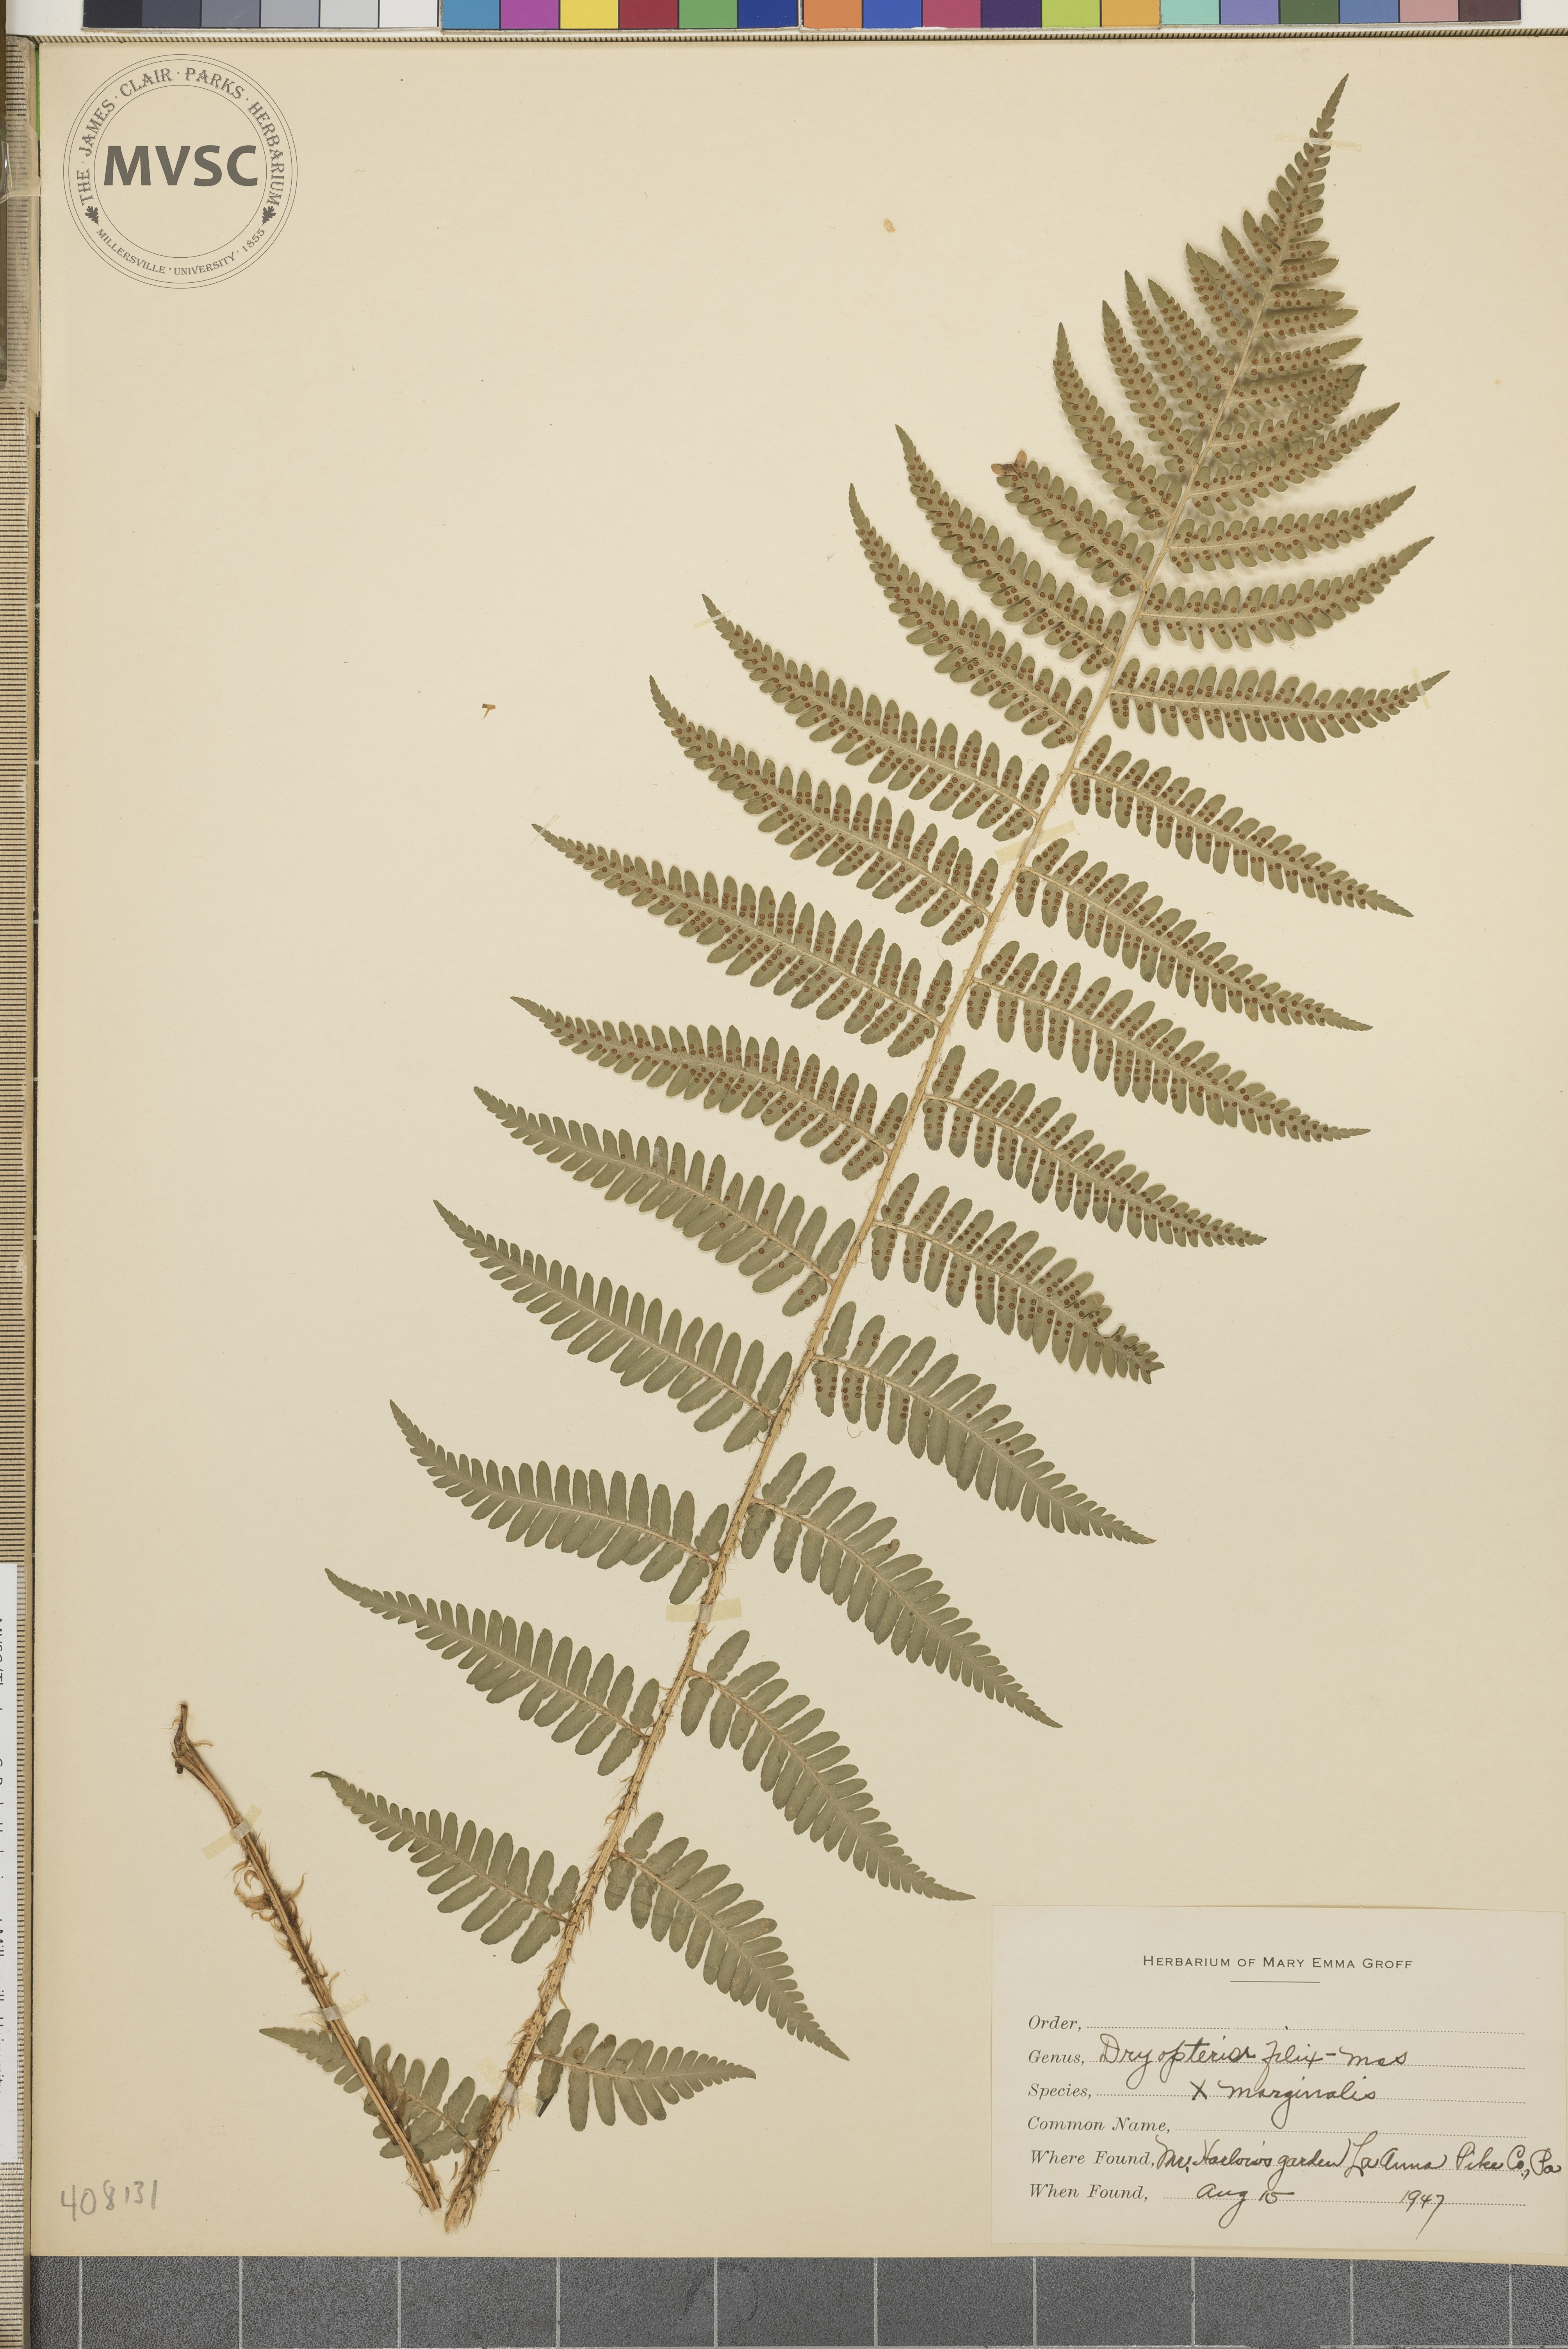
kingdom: Plantae
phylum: Tracheophyta
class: Polypodiopsida
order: Polypodiales
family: Dryopteridaceae
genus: Dryopteris
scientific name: Dryopteris
